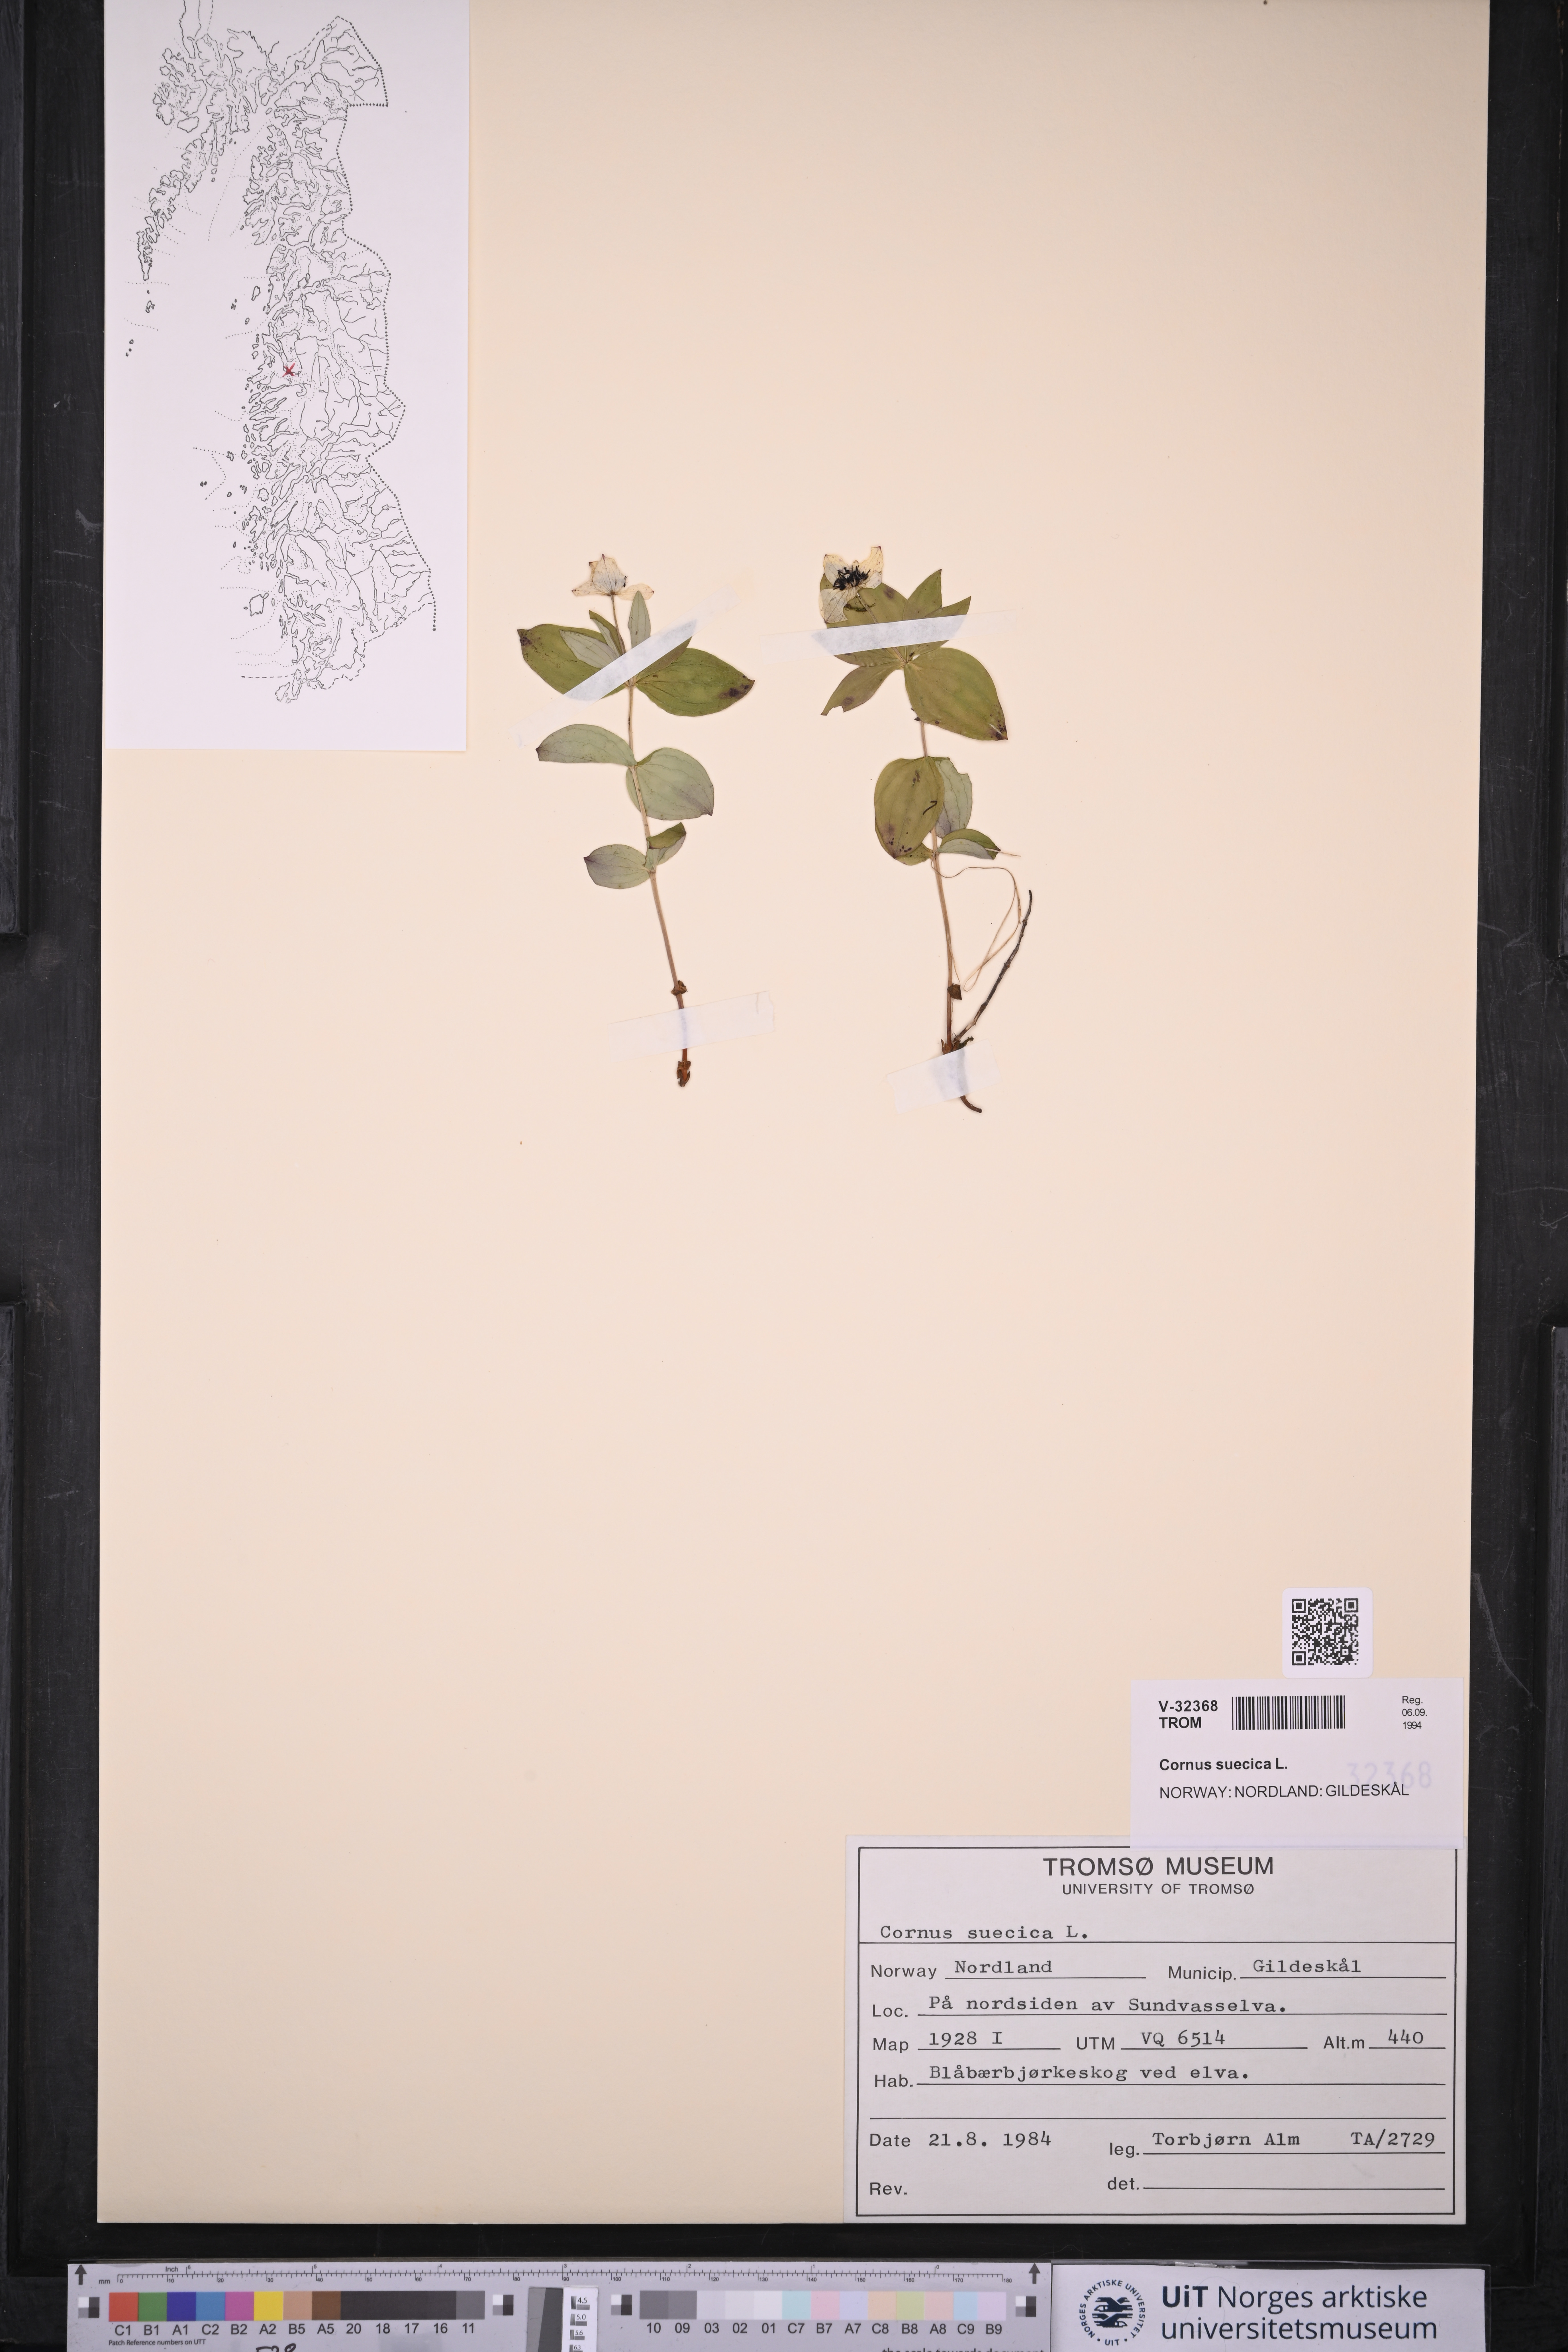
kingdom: Plantae
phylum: Tracheophyta
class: Magnoliopsida
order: Cornales
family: Cornaceae
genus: Cornus
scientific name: Cornus suecica
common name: Dwarf cornel
